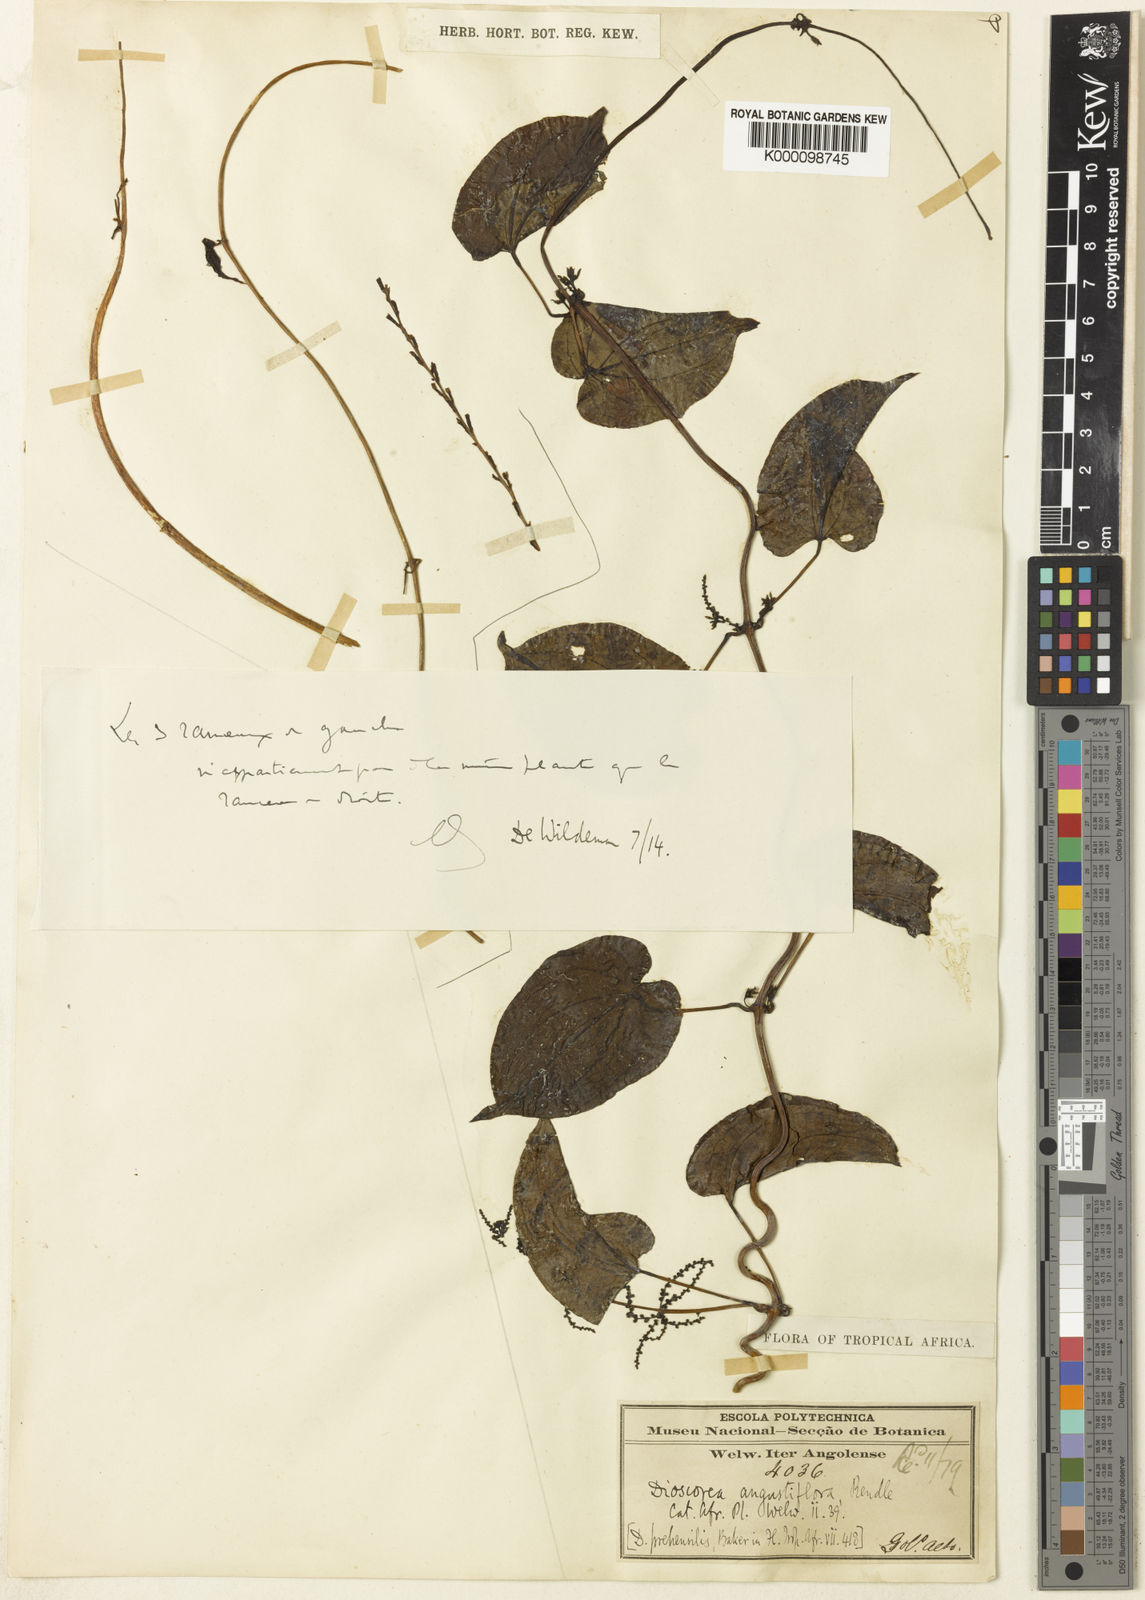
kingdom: Plantae
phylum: Tracheophyta
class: Liliopsida
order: Dioscoreales
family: Dioscoreaceae
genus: Dioscorea
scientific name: Dioscorea praehensilis
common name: Bush yam
